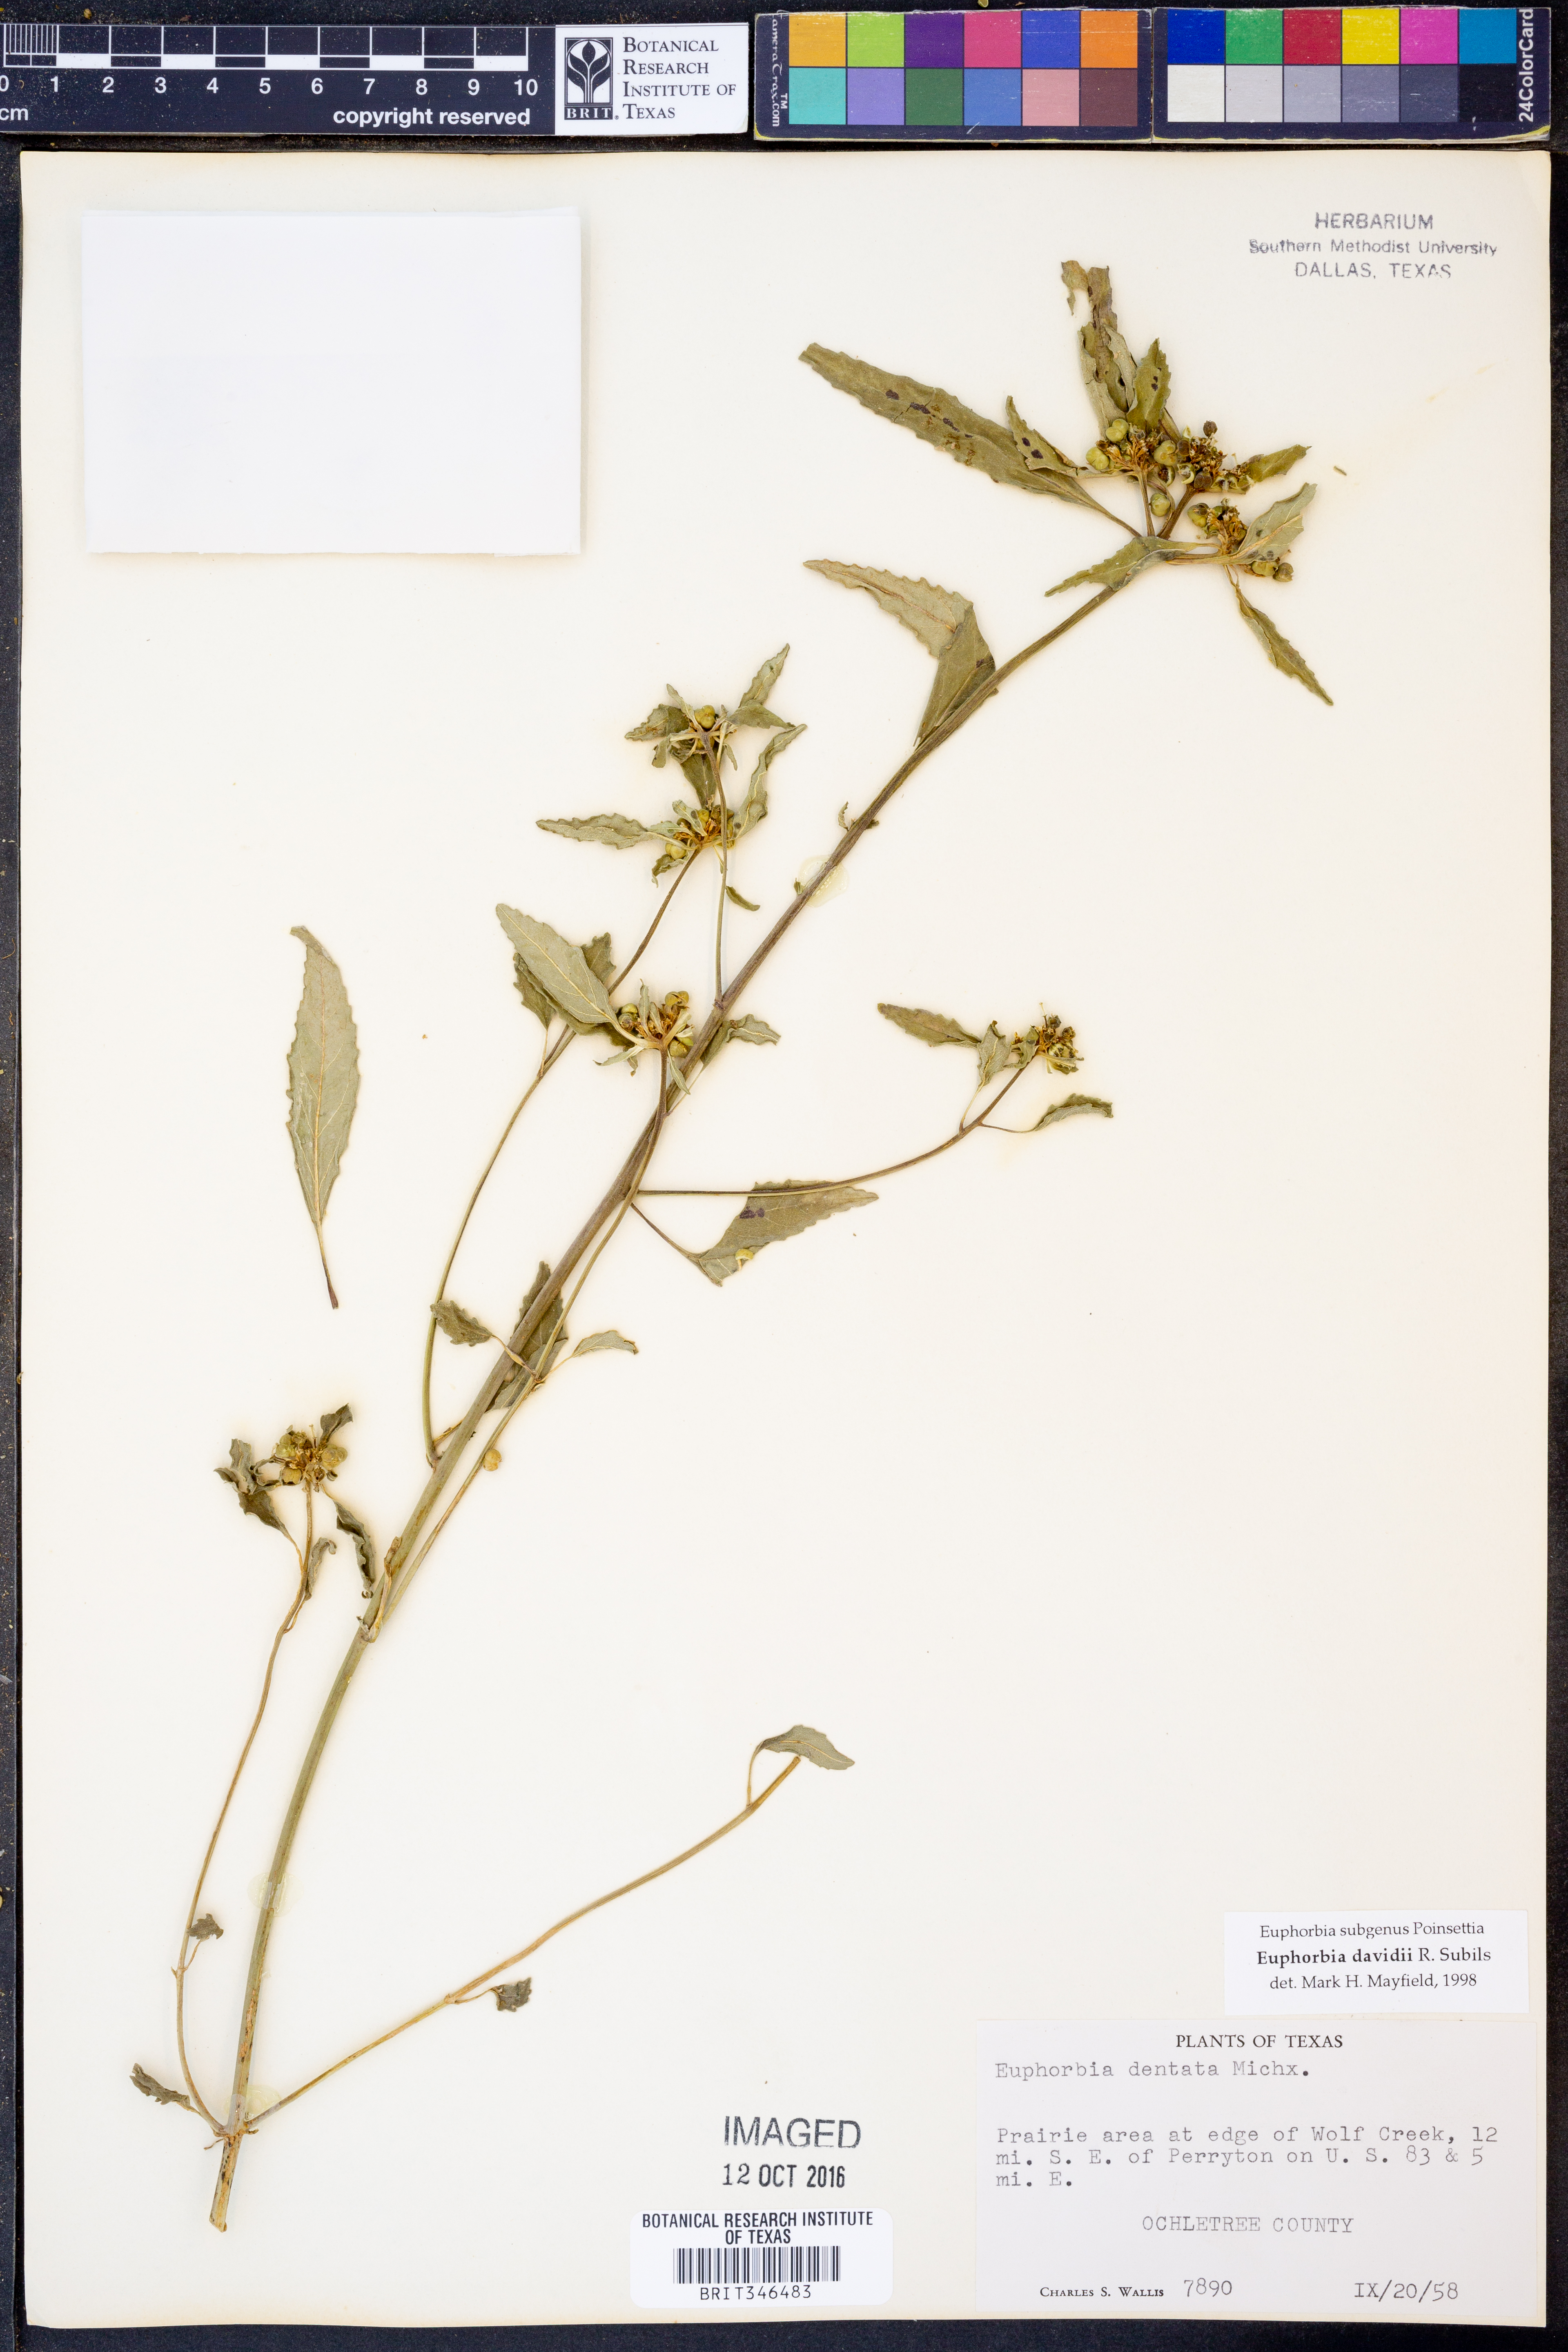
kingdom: Plantae
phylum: Tracheophyta
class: Magnoliopsida
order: Malpighiales
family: Euphorbiaceae
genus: Euphorbia
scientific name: Euphorbia davidii
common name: David's spurge
